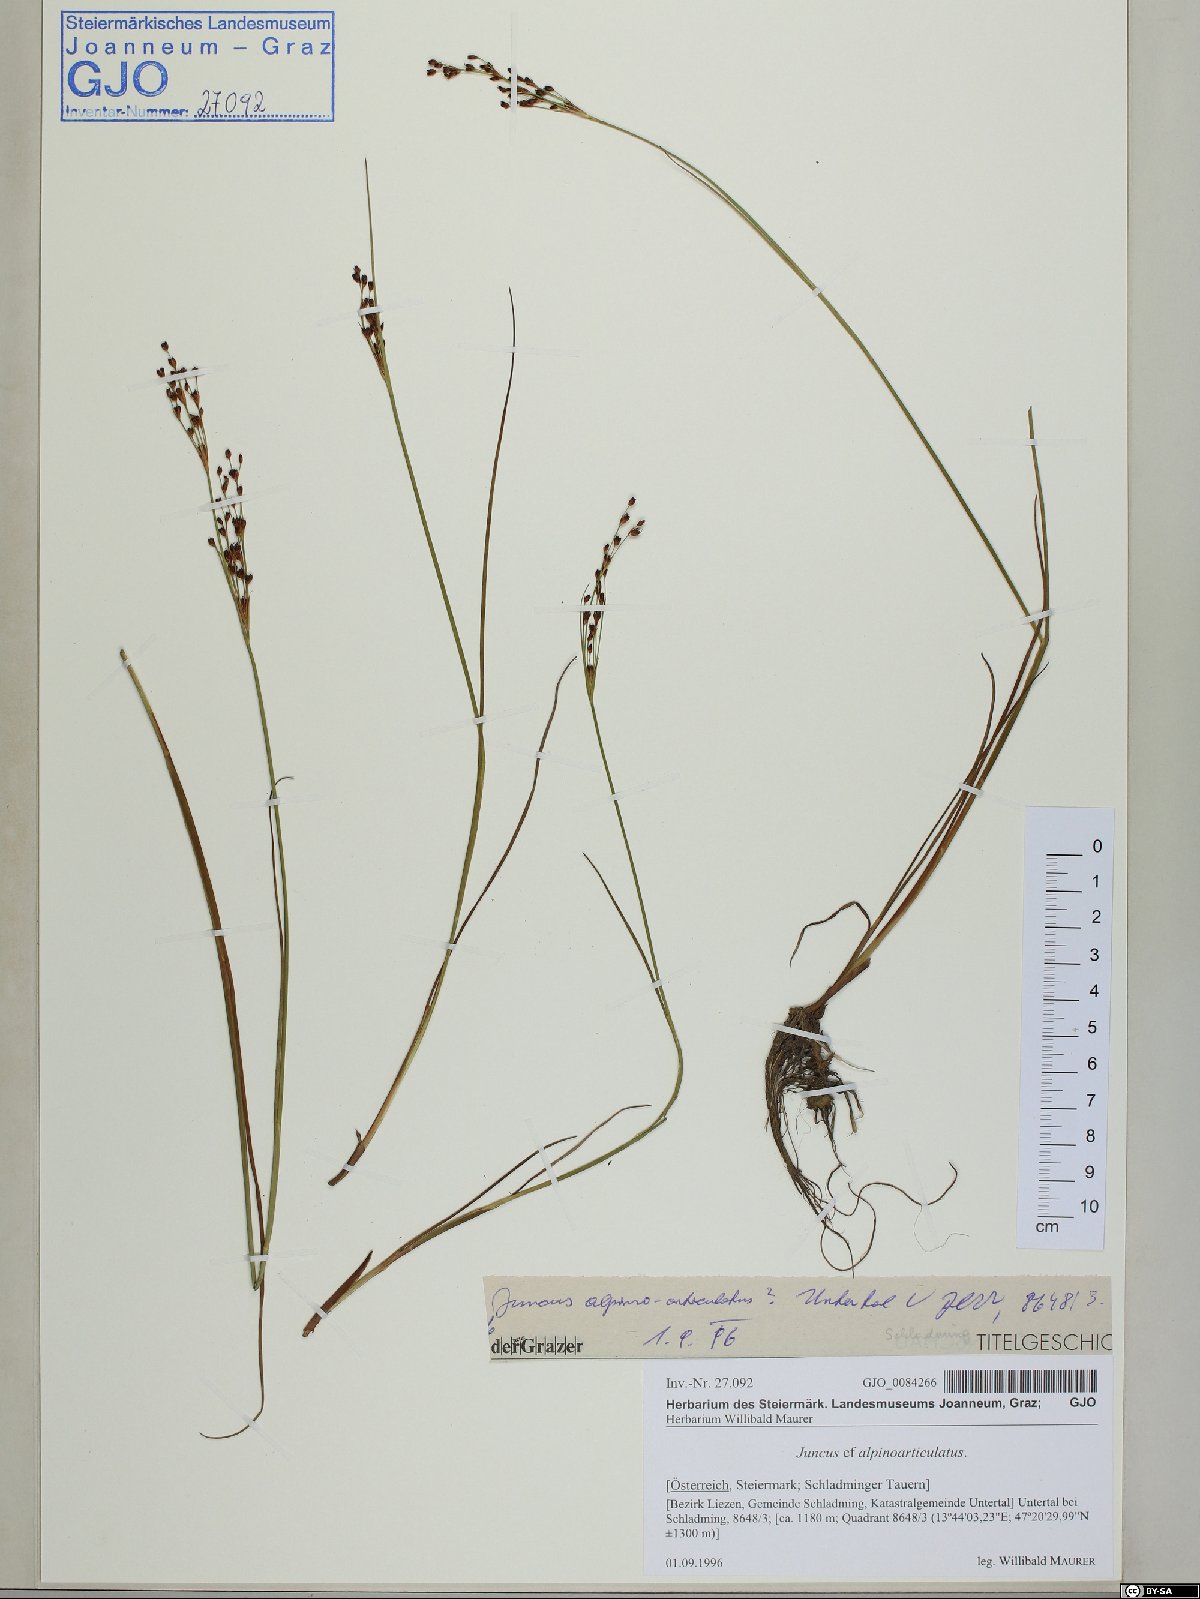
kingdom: Plantae
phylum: Tracheophyta
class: Liliopsida
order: Poales
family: Juncaceae
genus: Juncus
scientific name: Juncus alpinoarticulatus
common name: Alpine rush
